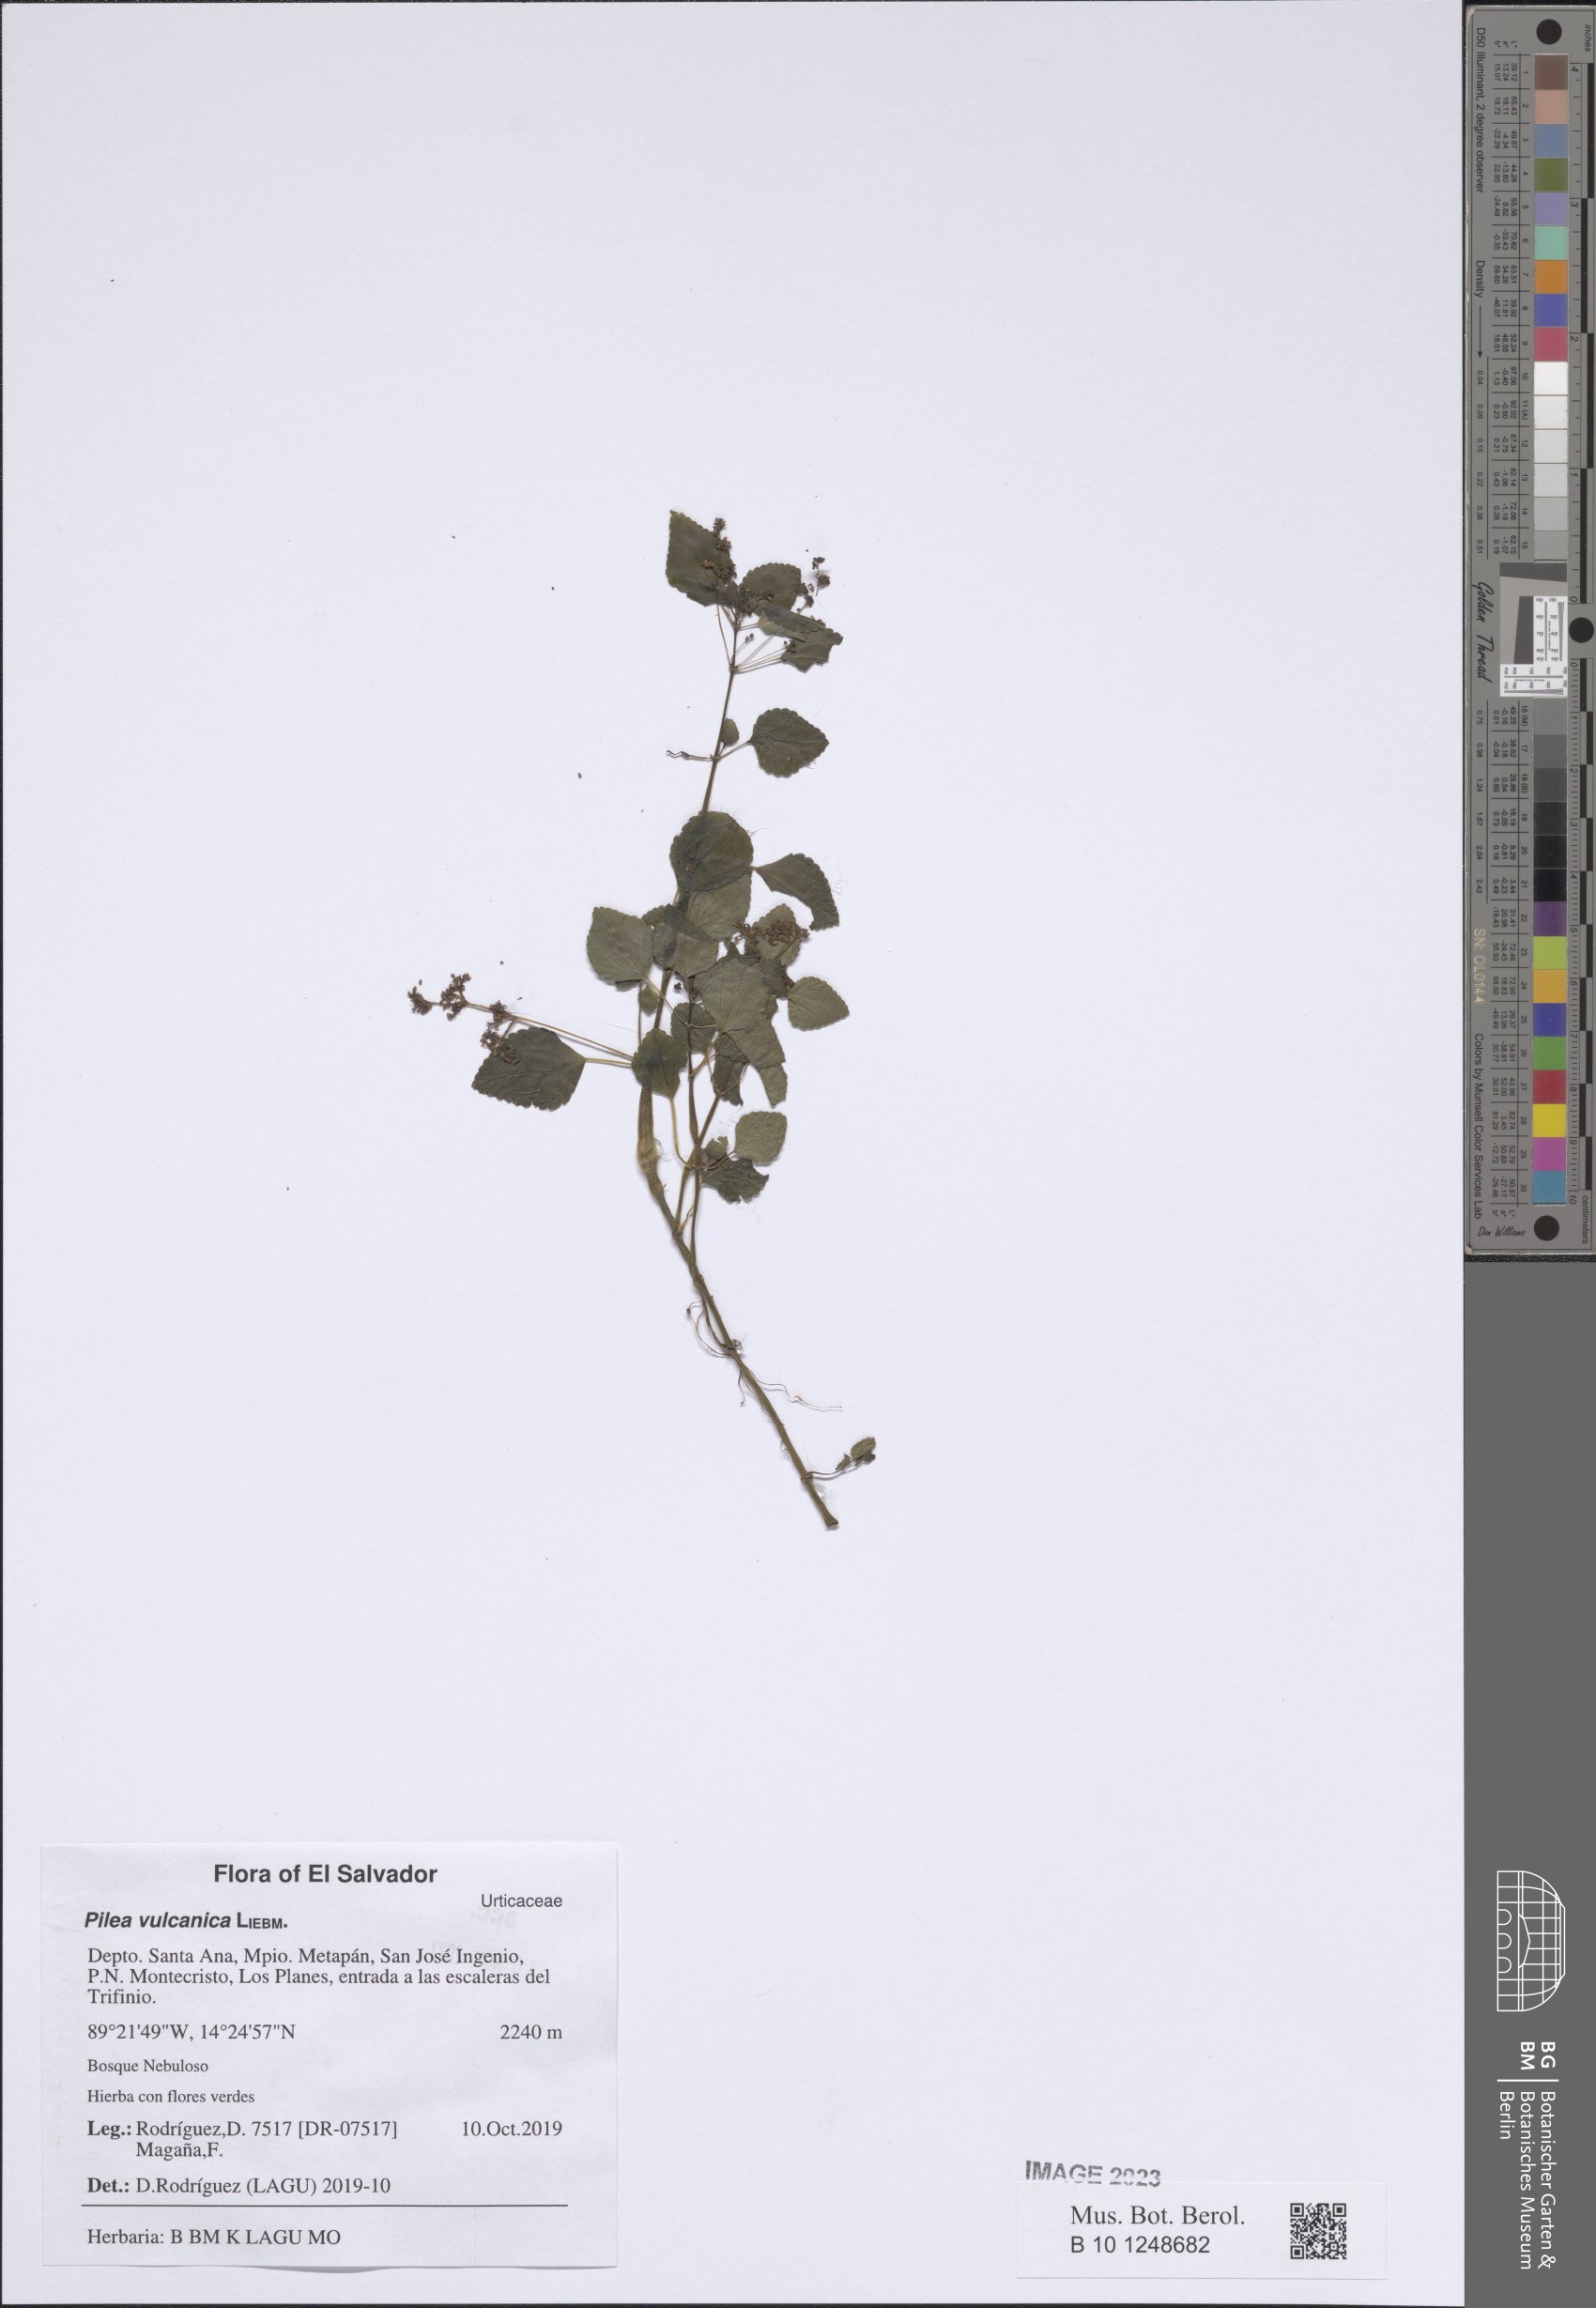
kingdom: Plantae
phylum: Tracheophyta
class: Magnoliopsida
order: Rosales
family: Urticaceae
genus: Pilea
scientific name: Pilea vulcanica
